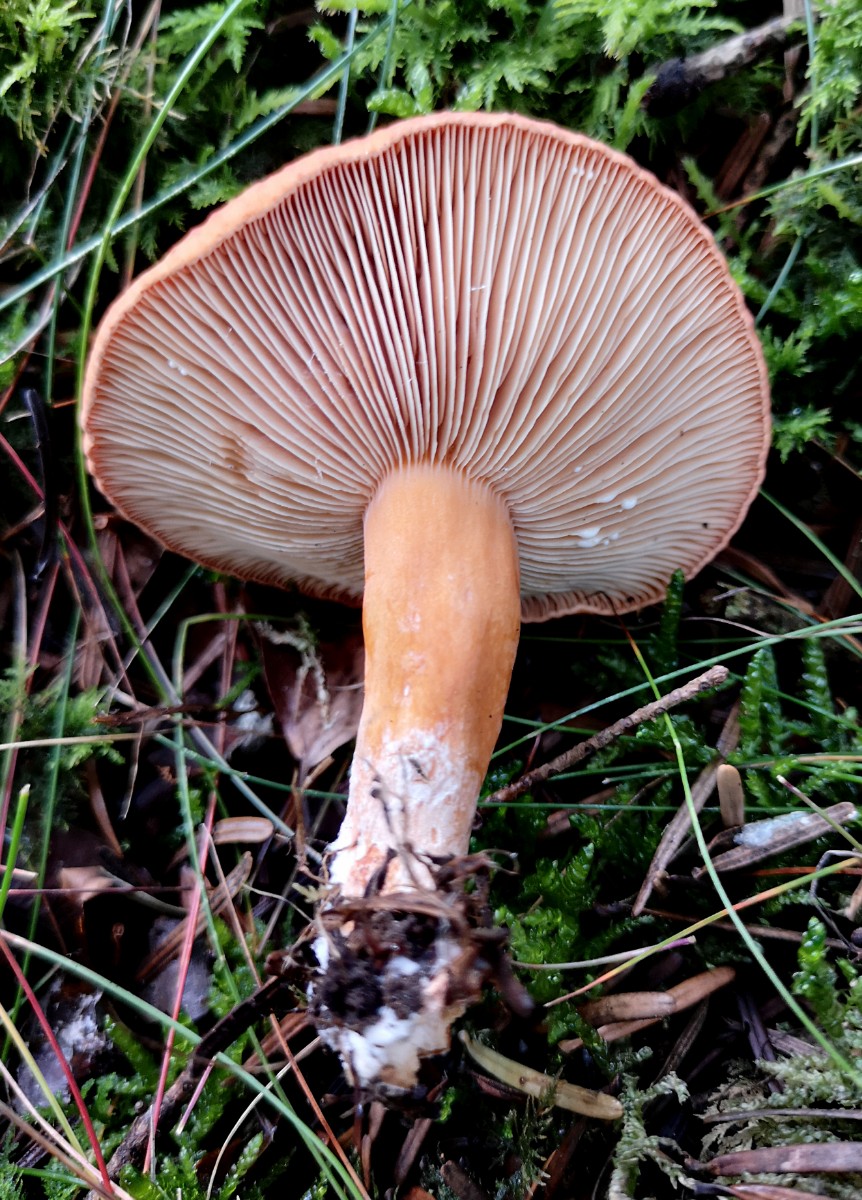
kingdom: Fungi
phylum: Basidiomycota
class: Agaricomycetes
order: Russulales
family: Russulaceae
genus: Lactarius
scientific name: Lactarius fulvissimus
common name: ræve-mælkehat
